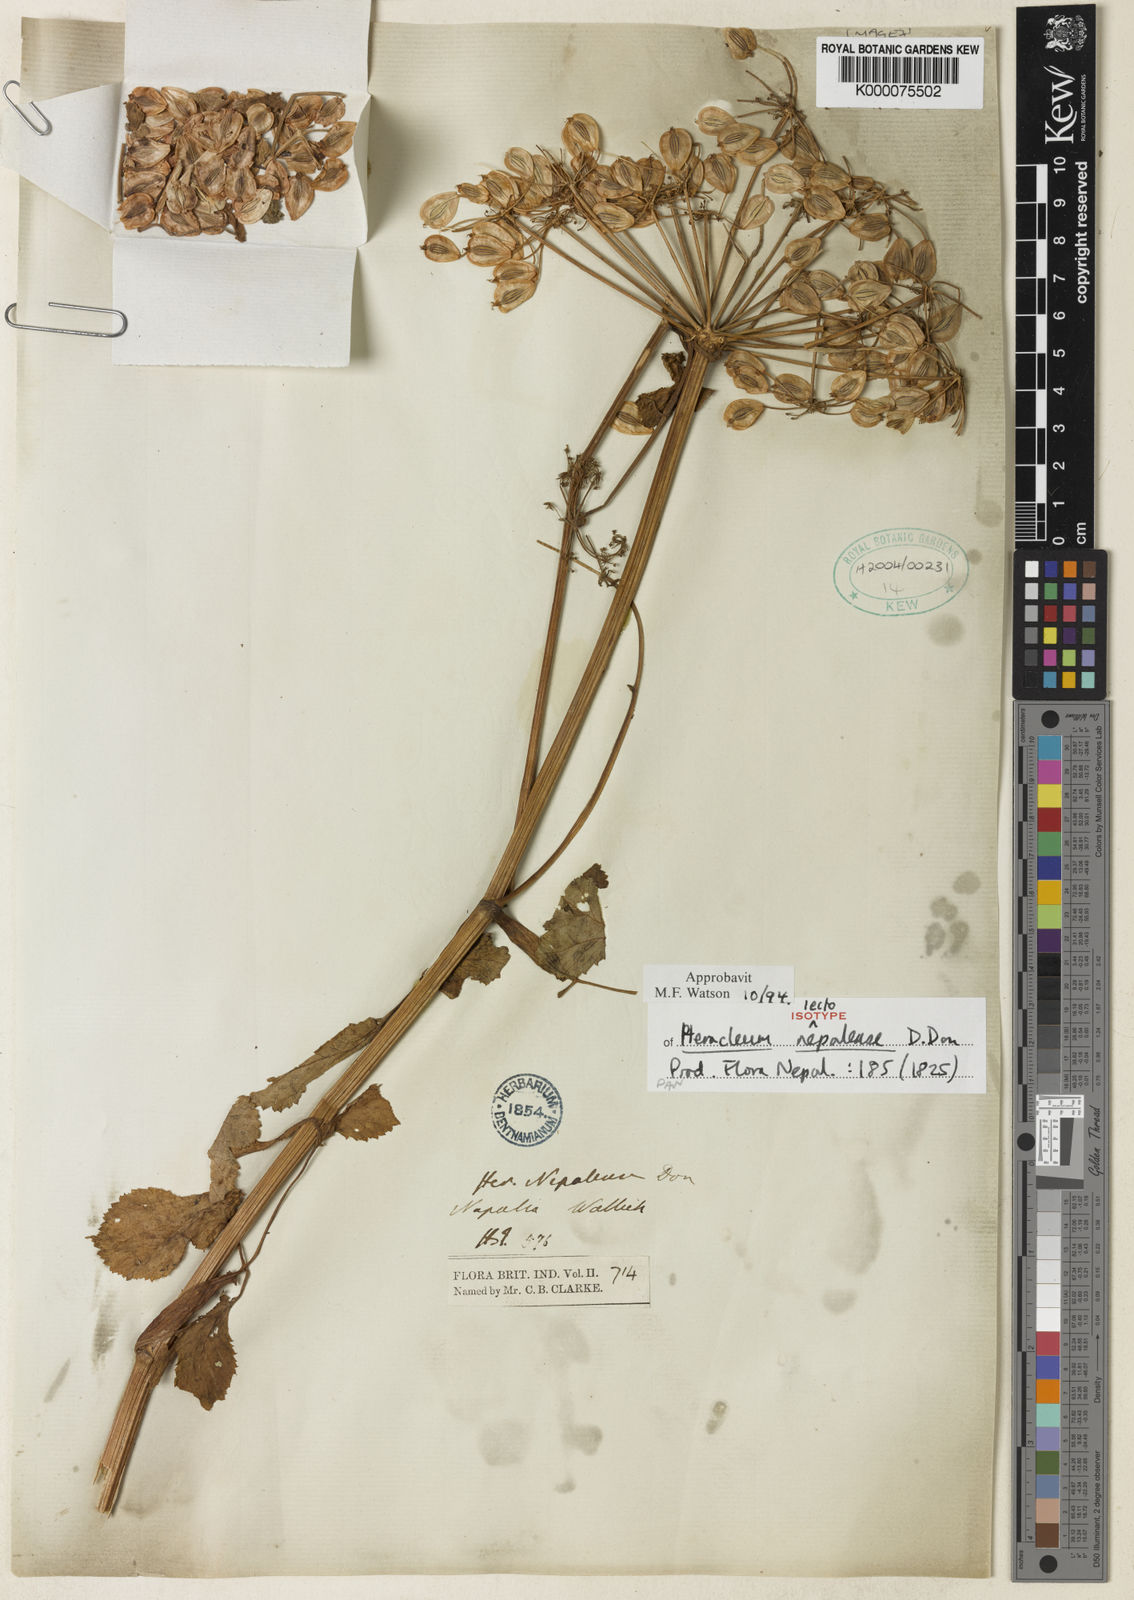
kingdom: Plantae
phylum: Tracheophyta
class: Magnoliopsida
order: Apiales
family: Apiaceae
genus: Tetrataenium
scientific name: Tetrataenium nepalense
